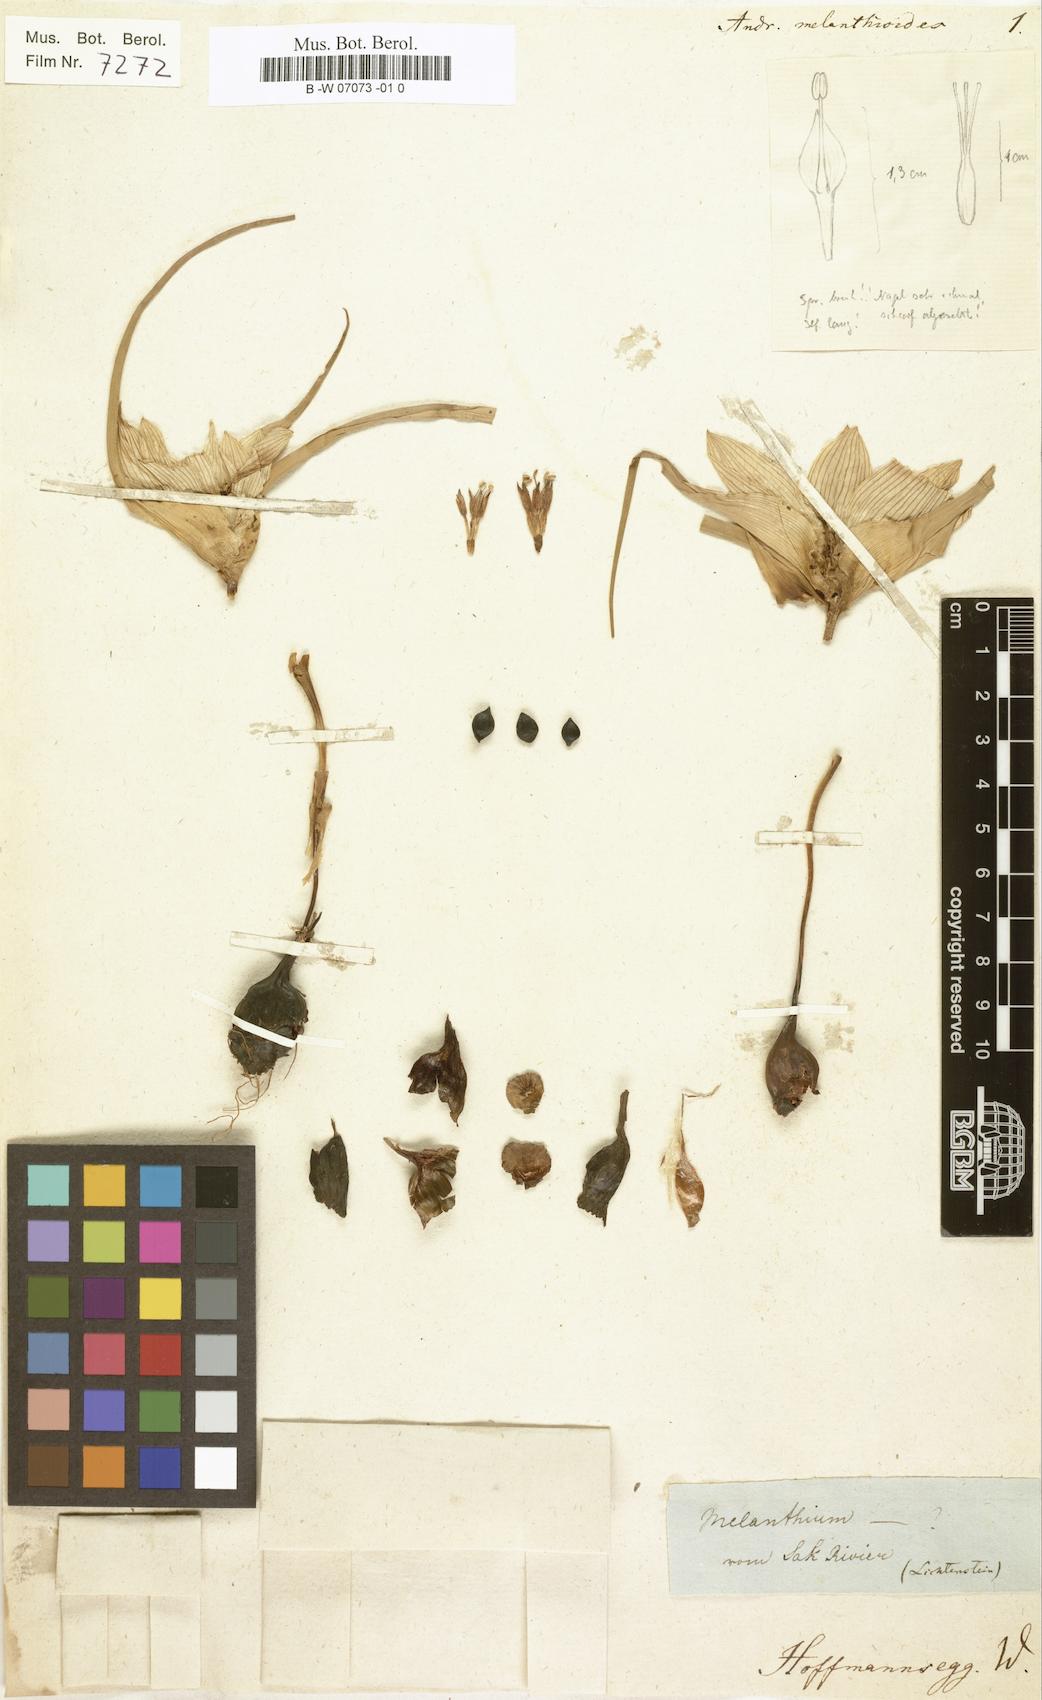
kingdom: Plantae
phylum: Tracheophyta
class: Liliopsida
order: Liliales
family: Colchicaceae
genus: Colchicum
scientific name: Colchicum melanthioides
